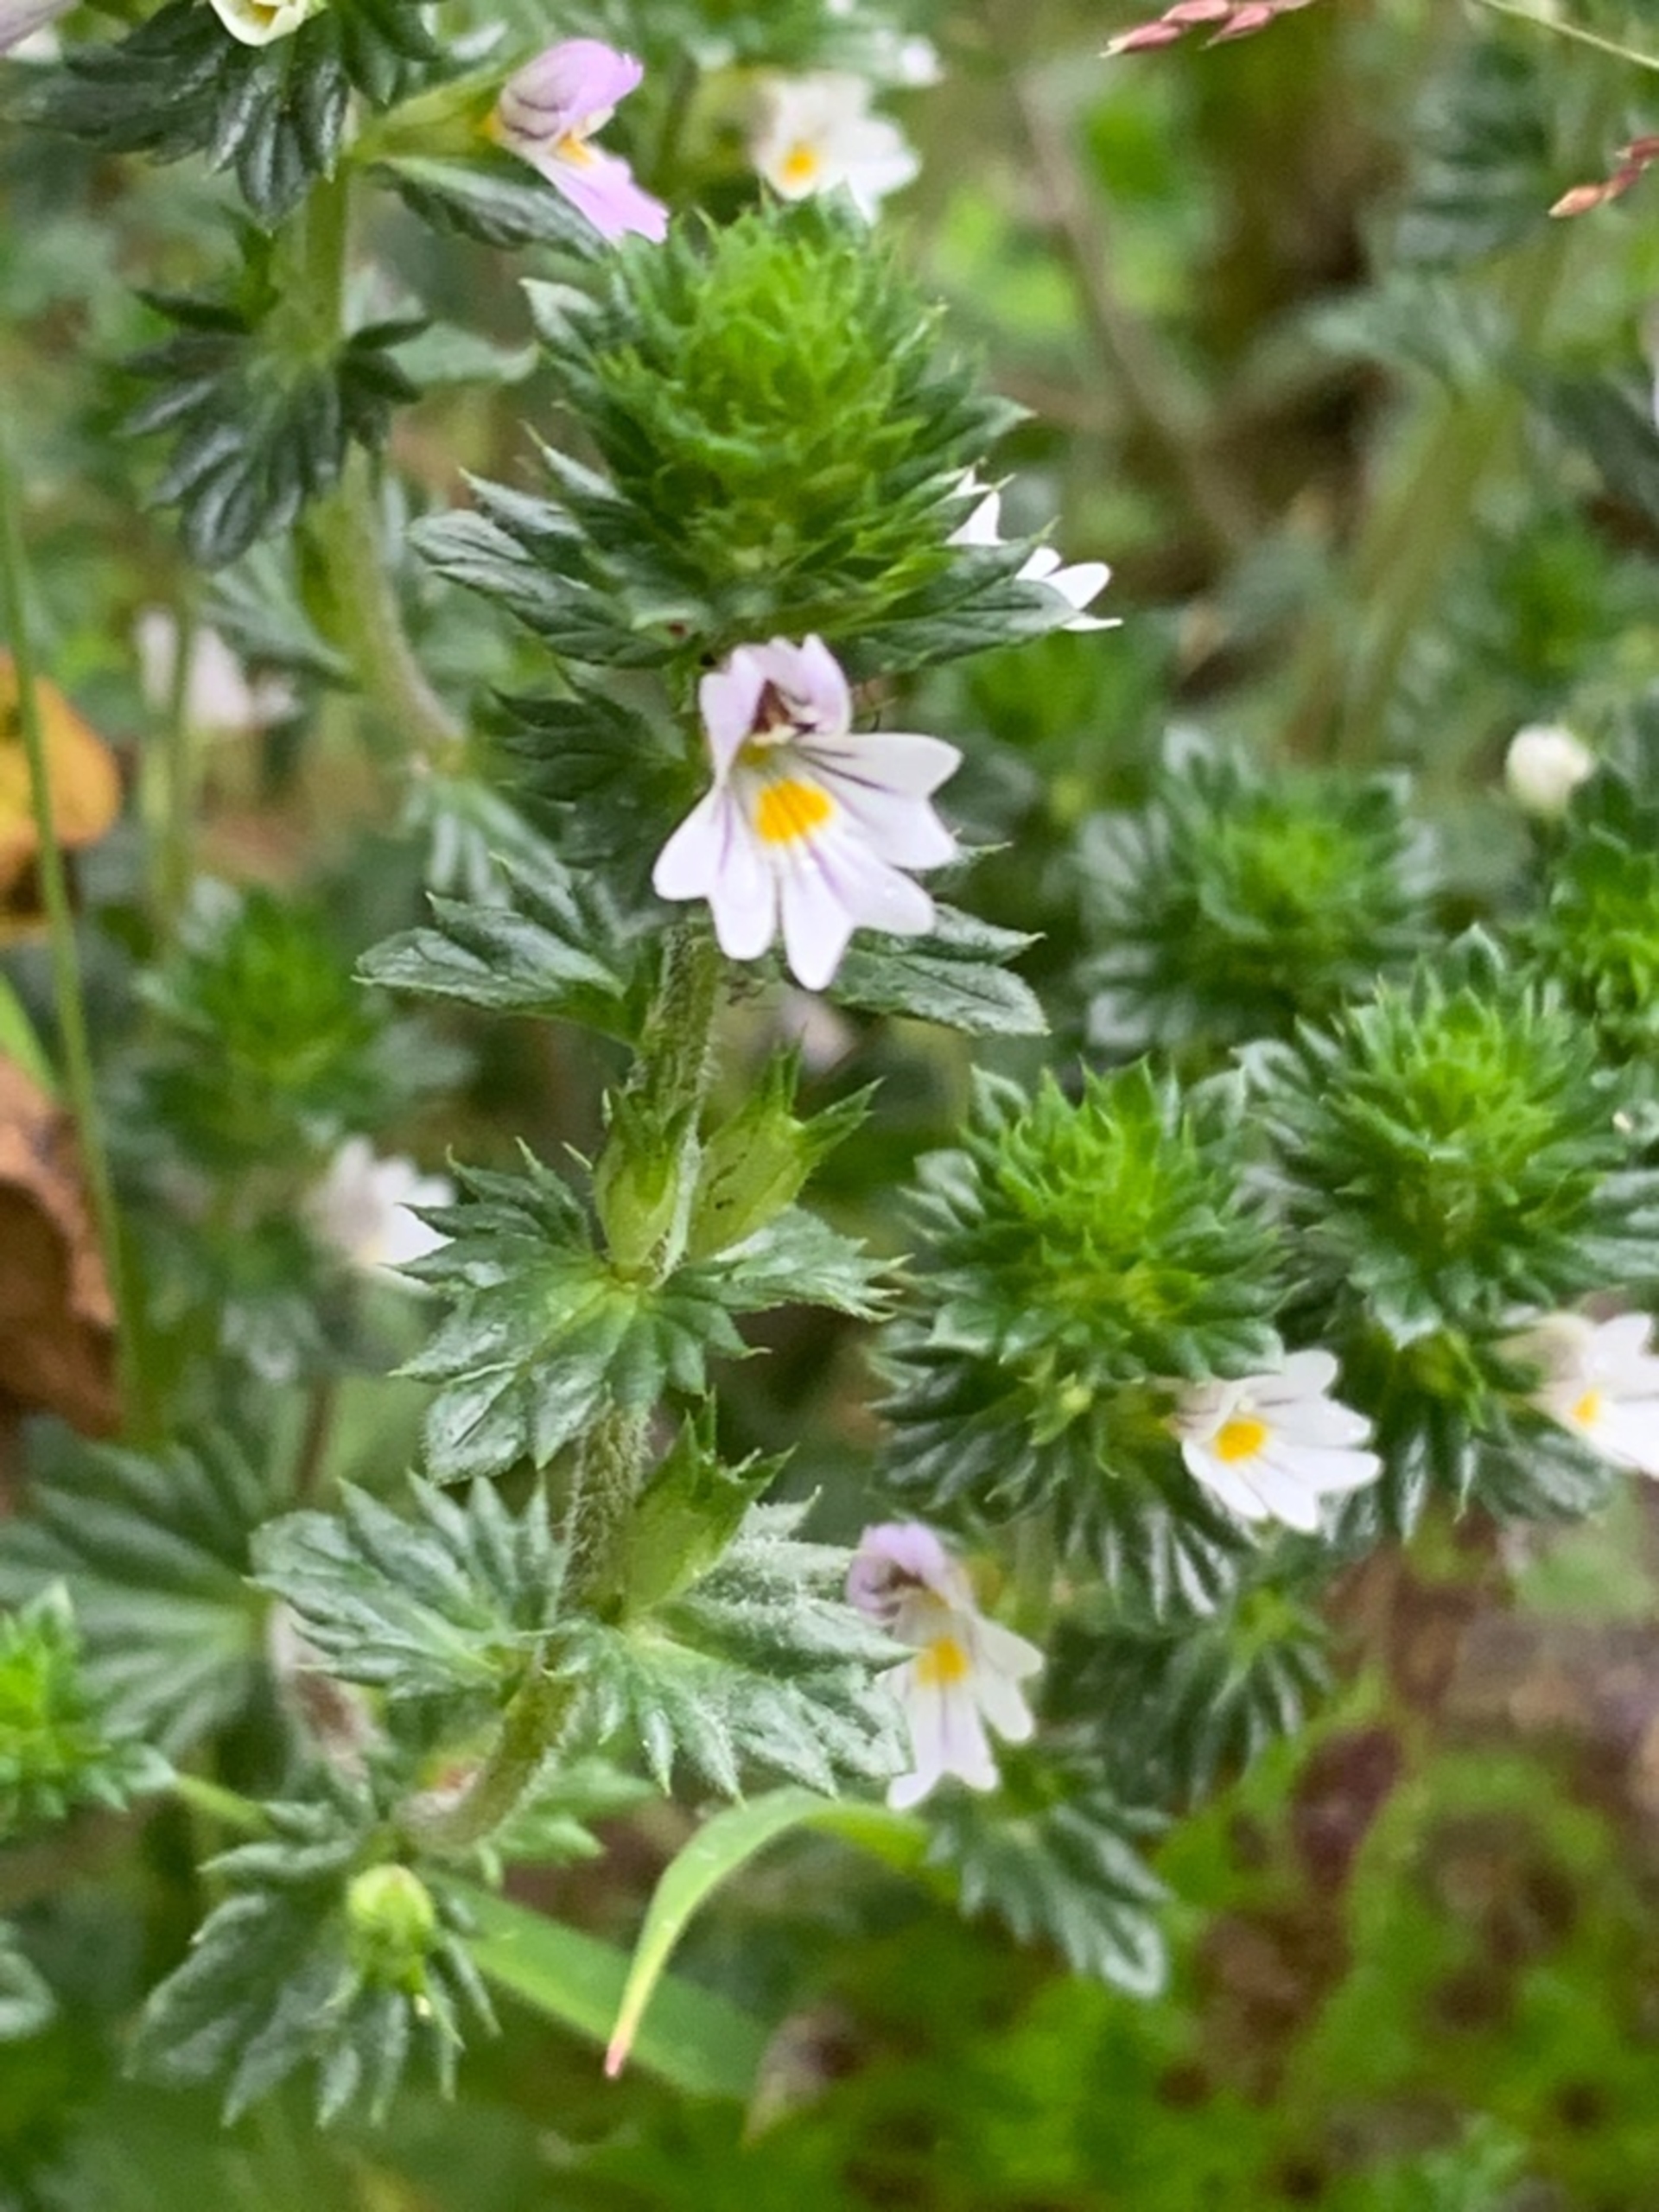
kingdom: Plantae
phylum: Tracheophyta
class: Magnoliopsida
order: Lamiales
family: Orobanchaceae
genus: Euphrasia
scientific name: Euphrasia vernalis
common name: Kirtel-øjentrøst
